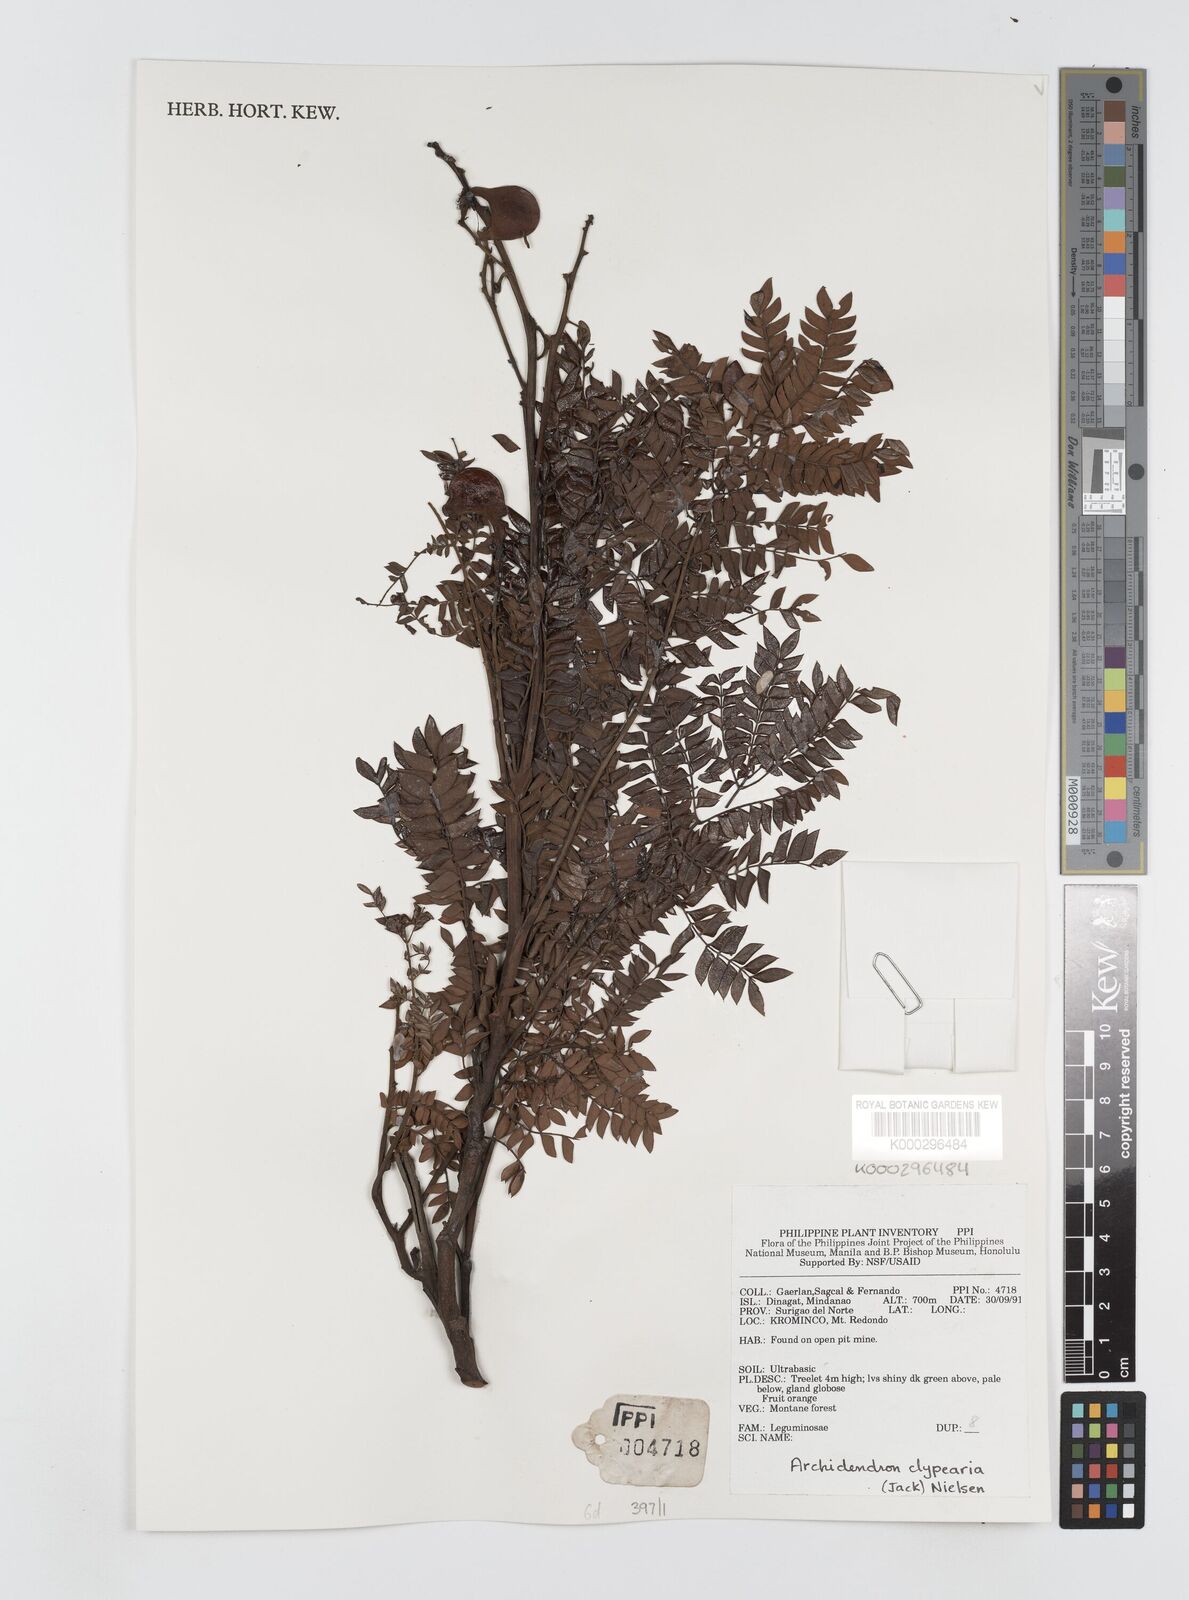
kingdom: Plantae
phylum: Tracheophyta
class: Magnoliopsida
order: Fabales
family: Fabaceae
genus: Archidendron
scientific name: Archidendron clypearia
